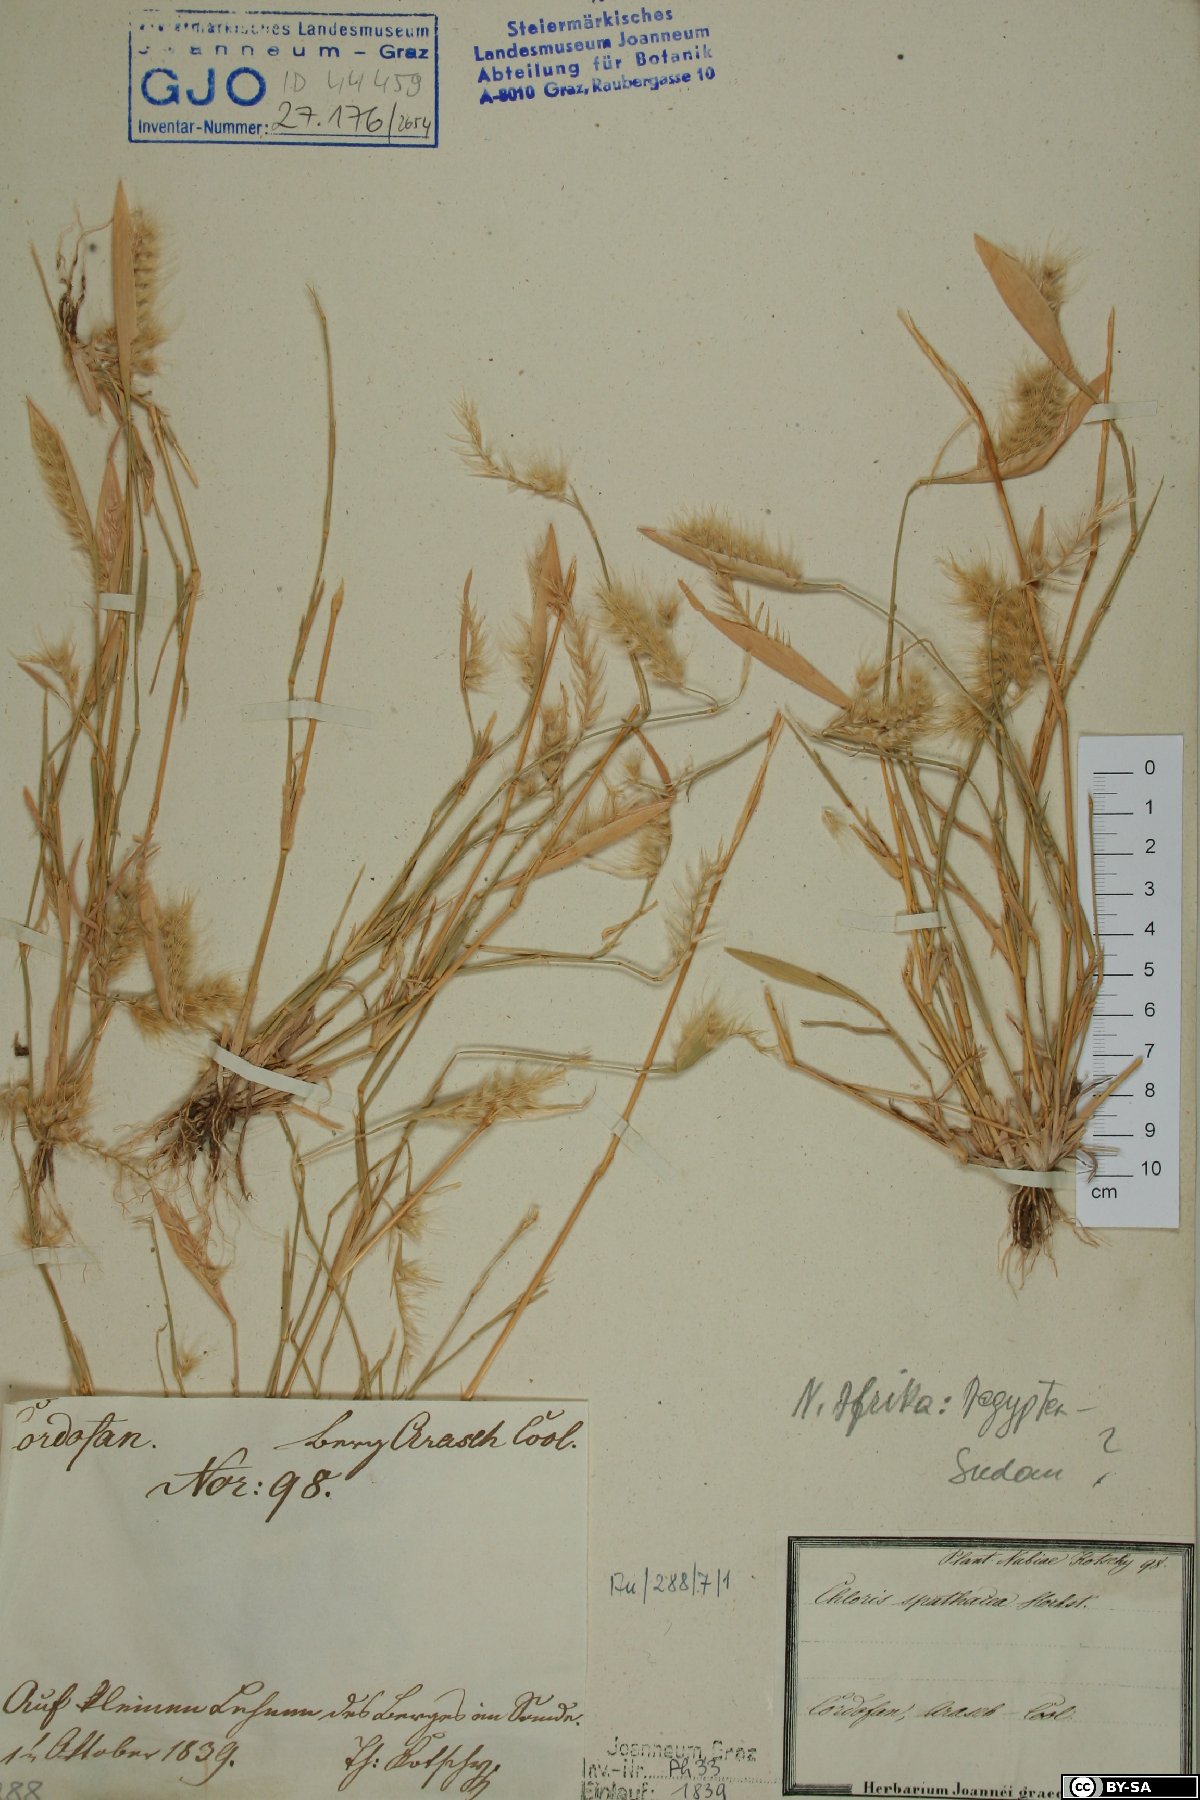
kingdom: Plantae
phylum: Tracheophyta
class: Liliopsida
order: Poales
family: Poaceae
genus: Tetrapogon
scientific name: Tetrapogon cenchriformis
